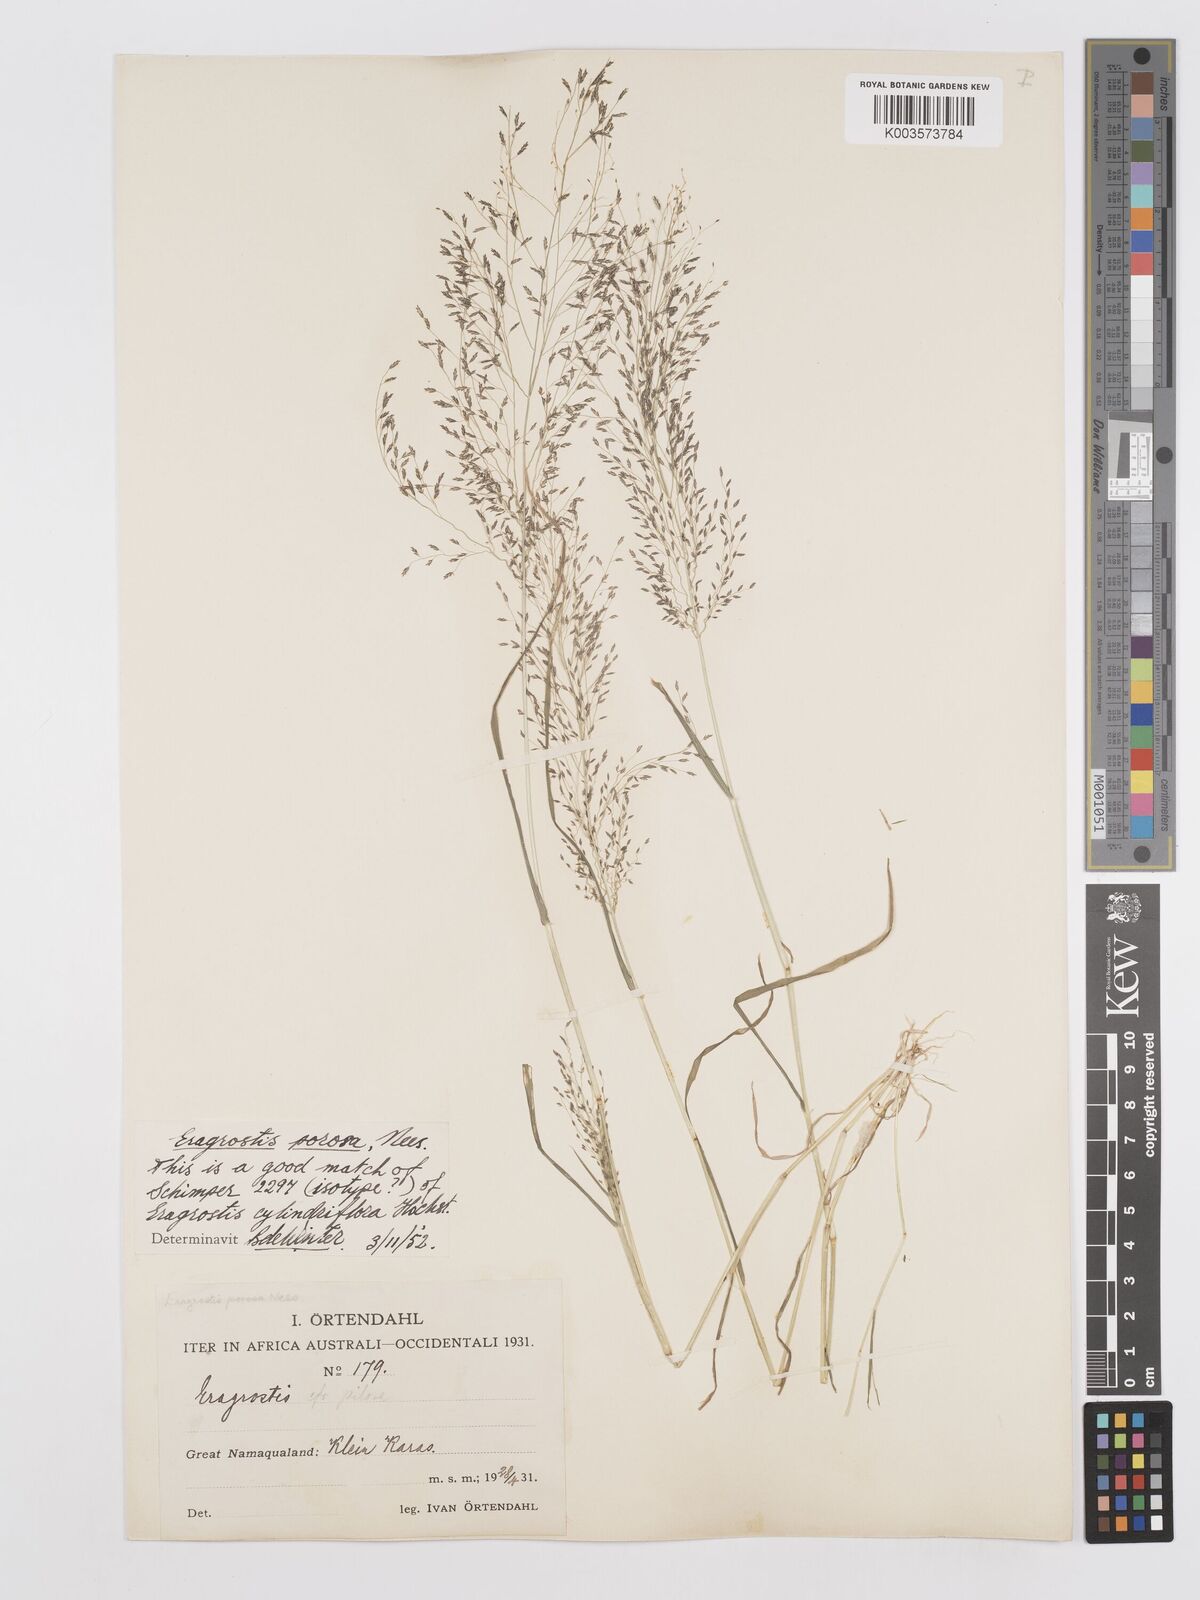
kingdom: Plantae
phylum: Tracheophyta
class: Liliopsida
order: Poales
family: Poaceae
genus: Eragrostis
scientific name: Eragrostis porosa
